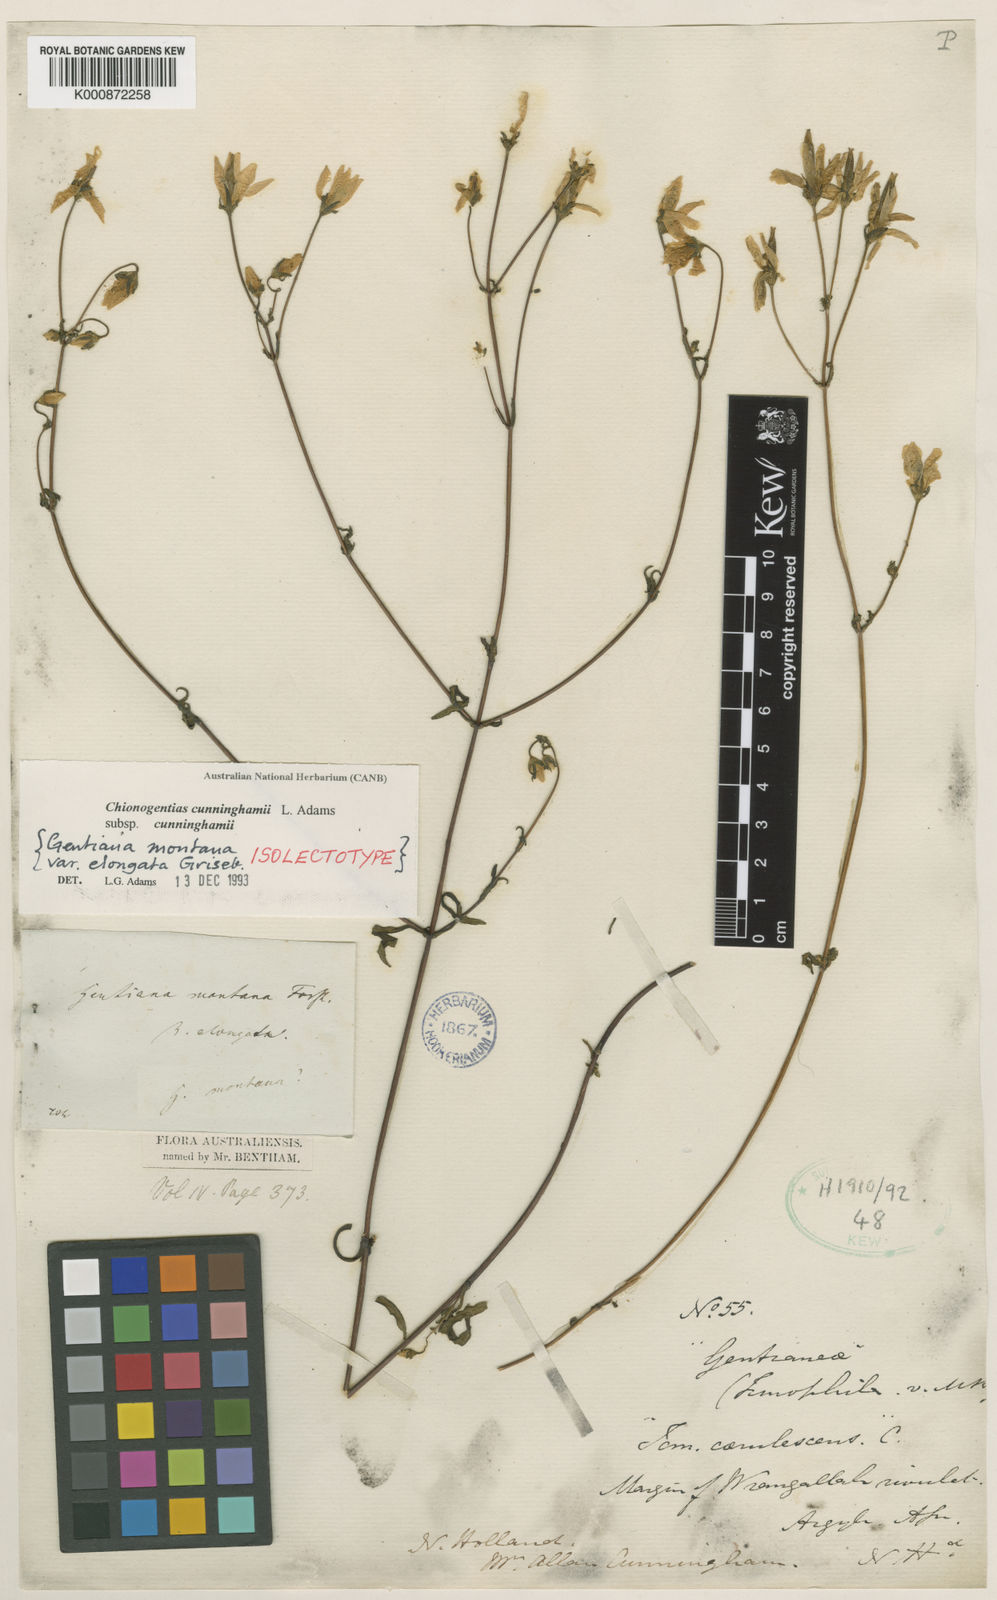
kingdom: Plantae
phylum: Tracheophyta
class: Magnoliopsida
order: Gentianales
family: Gentianaceae
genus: Gentianella
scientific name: Gentianella cunninghamii
